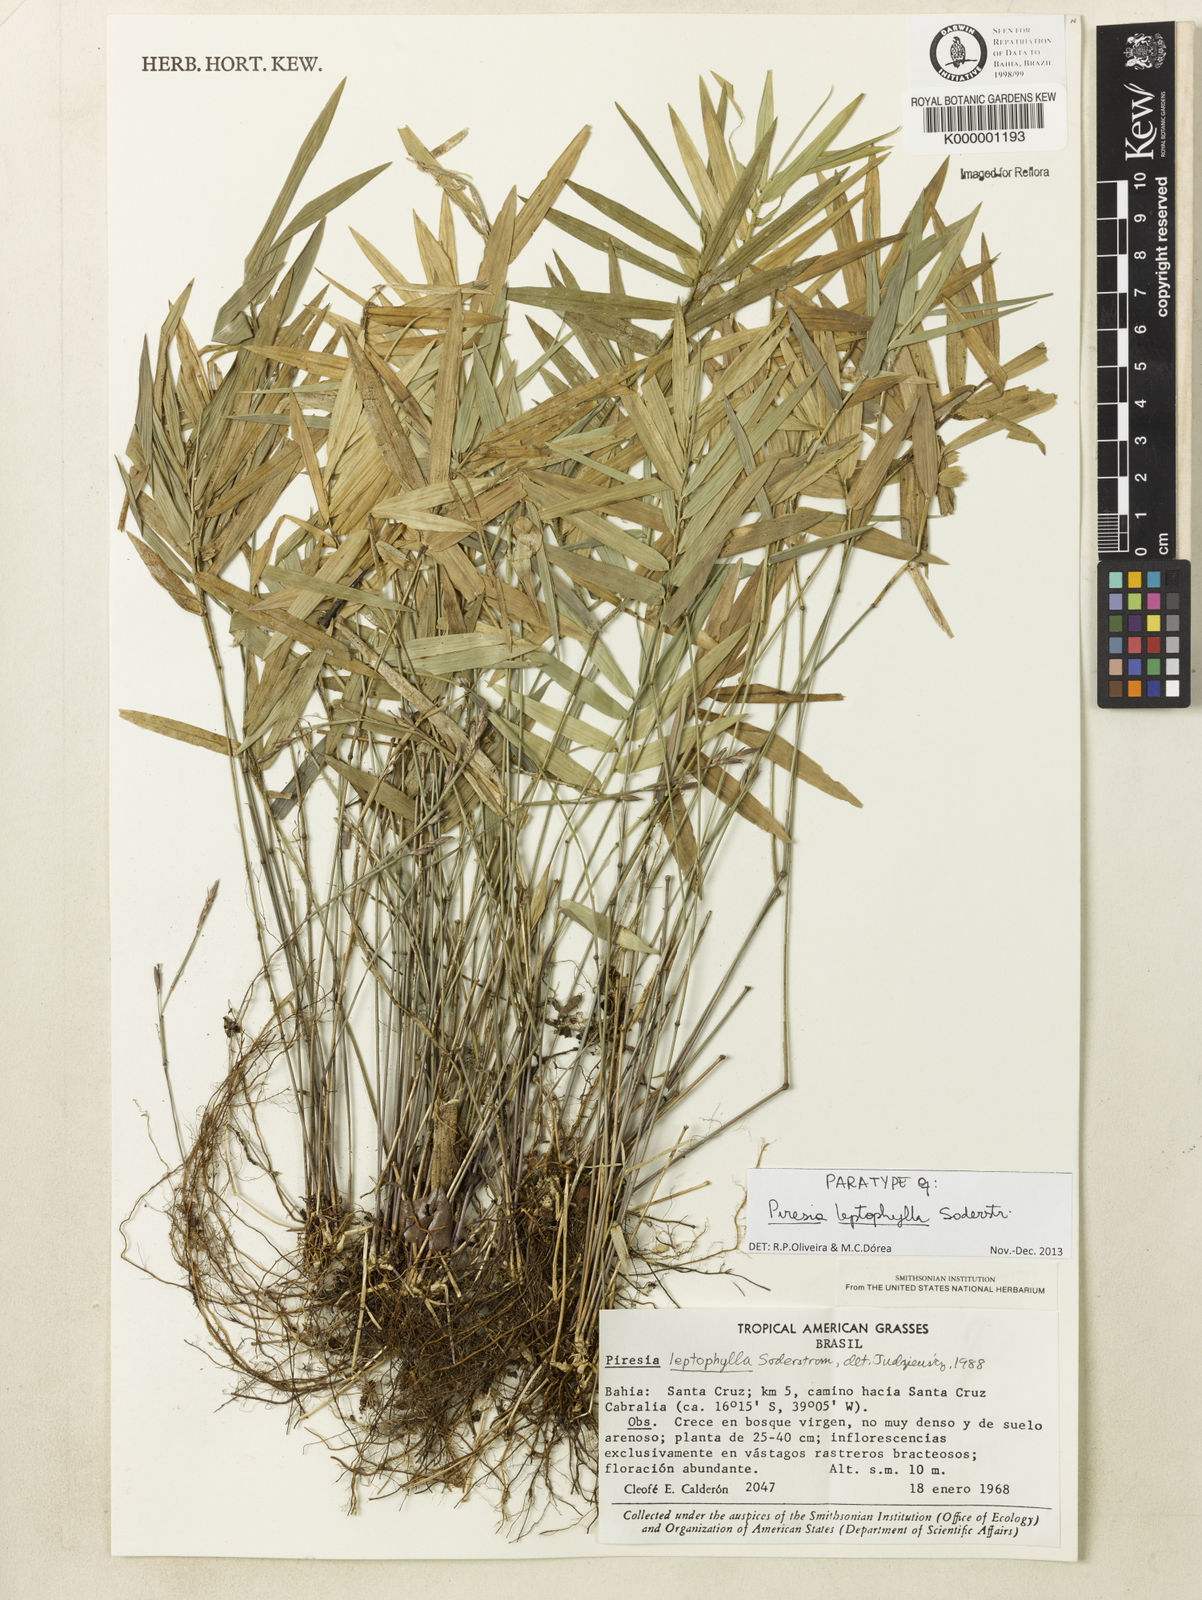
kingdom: Plantae
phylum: Tracheophyta
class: Liliopsida
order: Poales
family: Poaceae
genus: Piresia
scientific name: Piresia leptophylla
